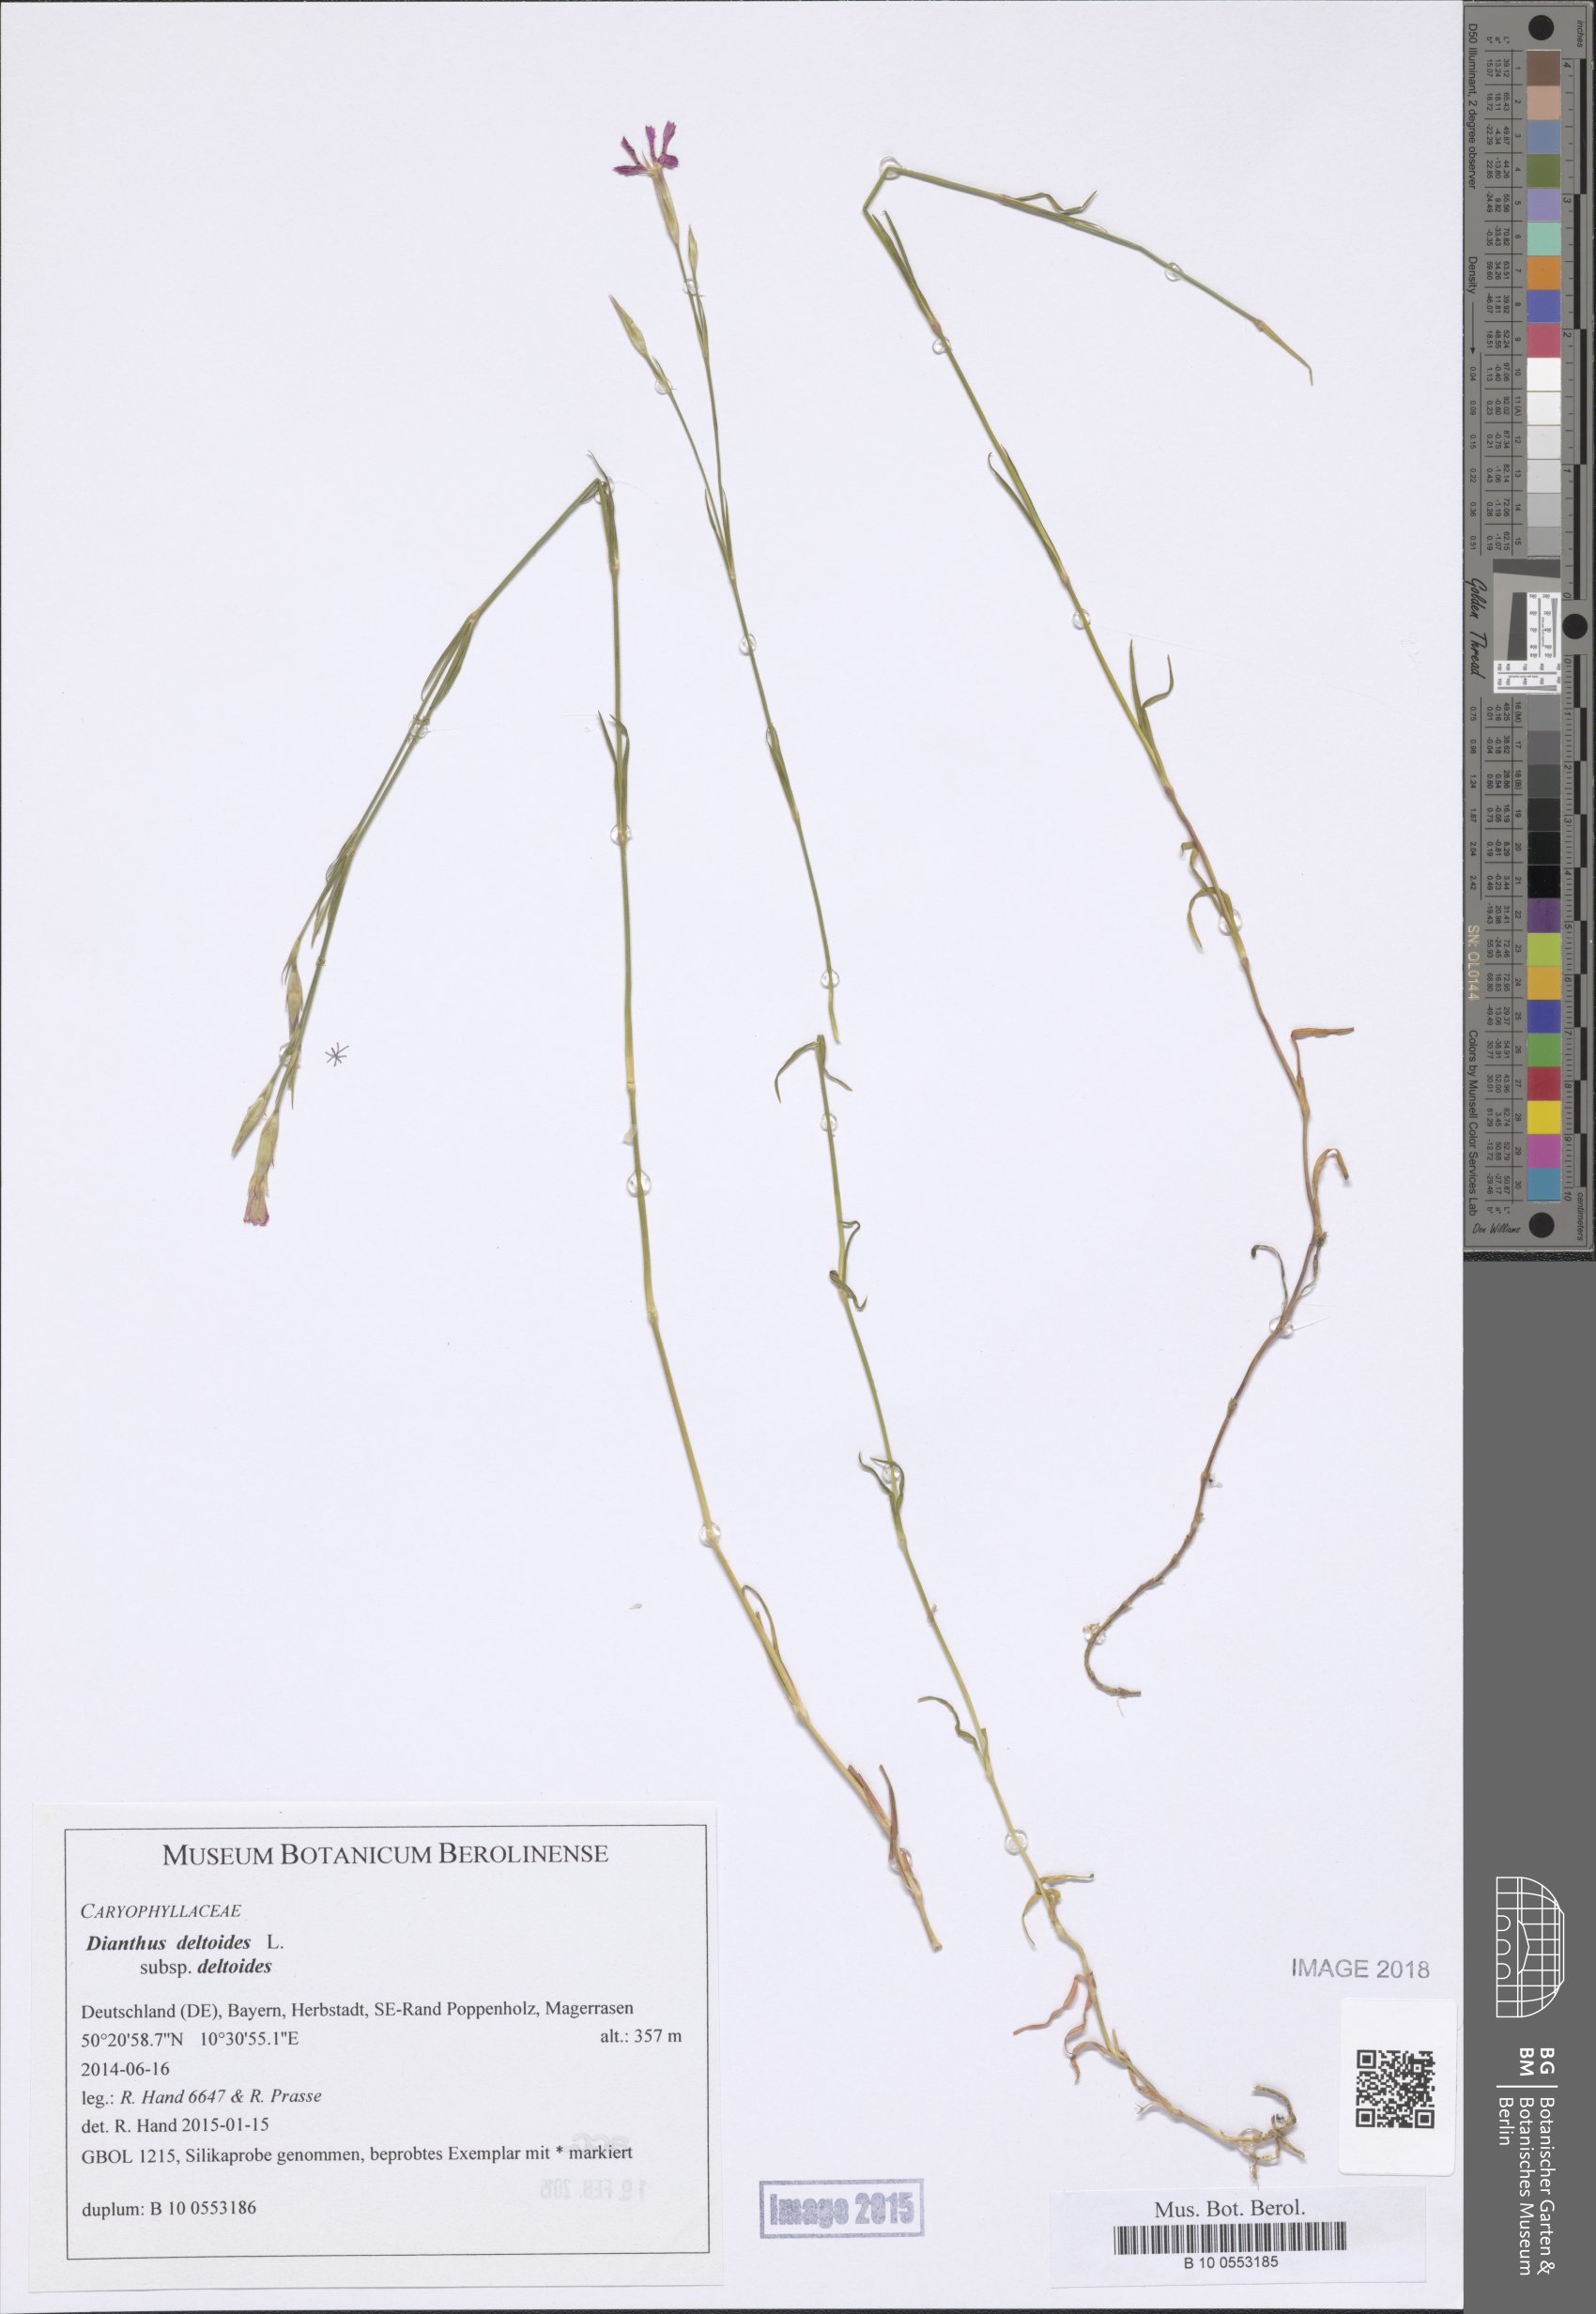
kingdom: Plantae
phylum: Tracheophyta
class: Magnoliopsida
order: Caryophyllales
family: Caryophyllaceae
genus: Dianthus
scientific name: Dianthus deltoides
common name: Maiden pink
